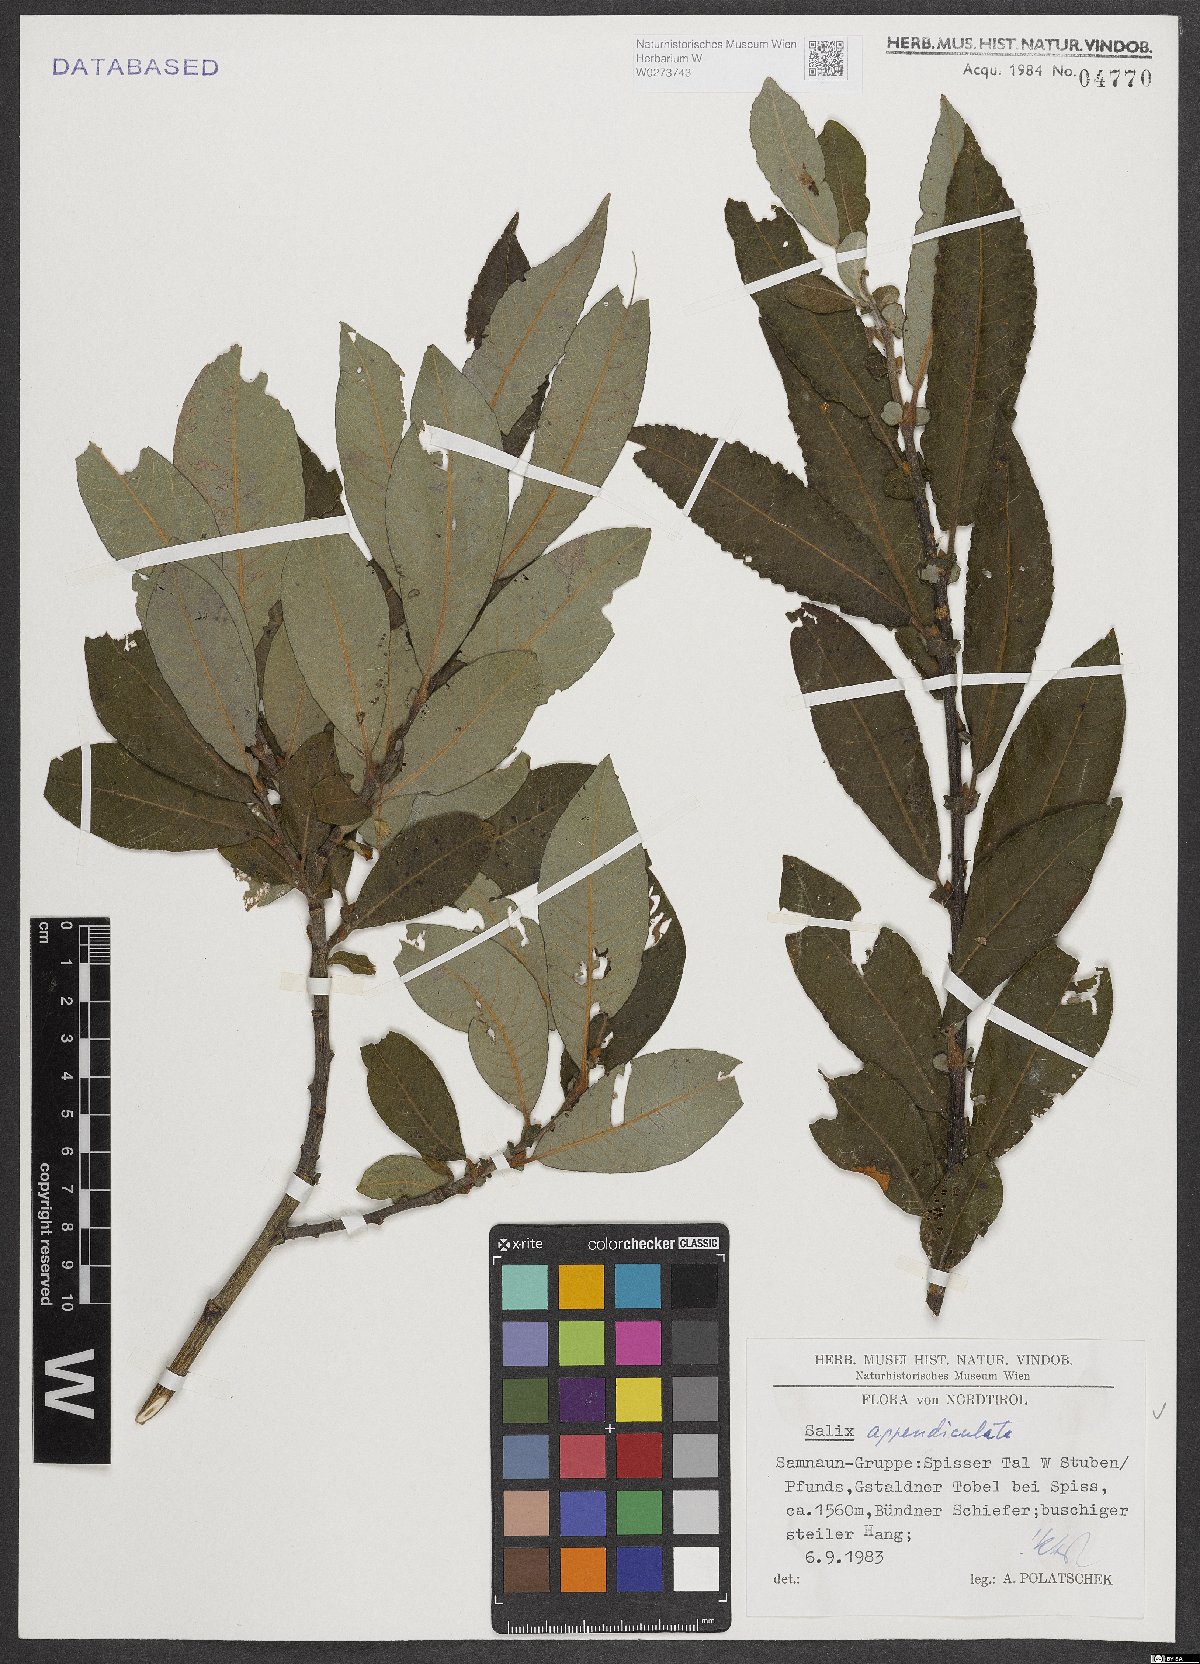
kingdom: Plantae
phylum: Tracheophyta
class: Magnoliopsida
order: Malpighiales
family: Salicaceae
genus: Salix
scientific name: Salix appendiculata
